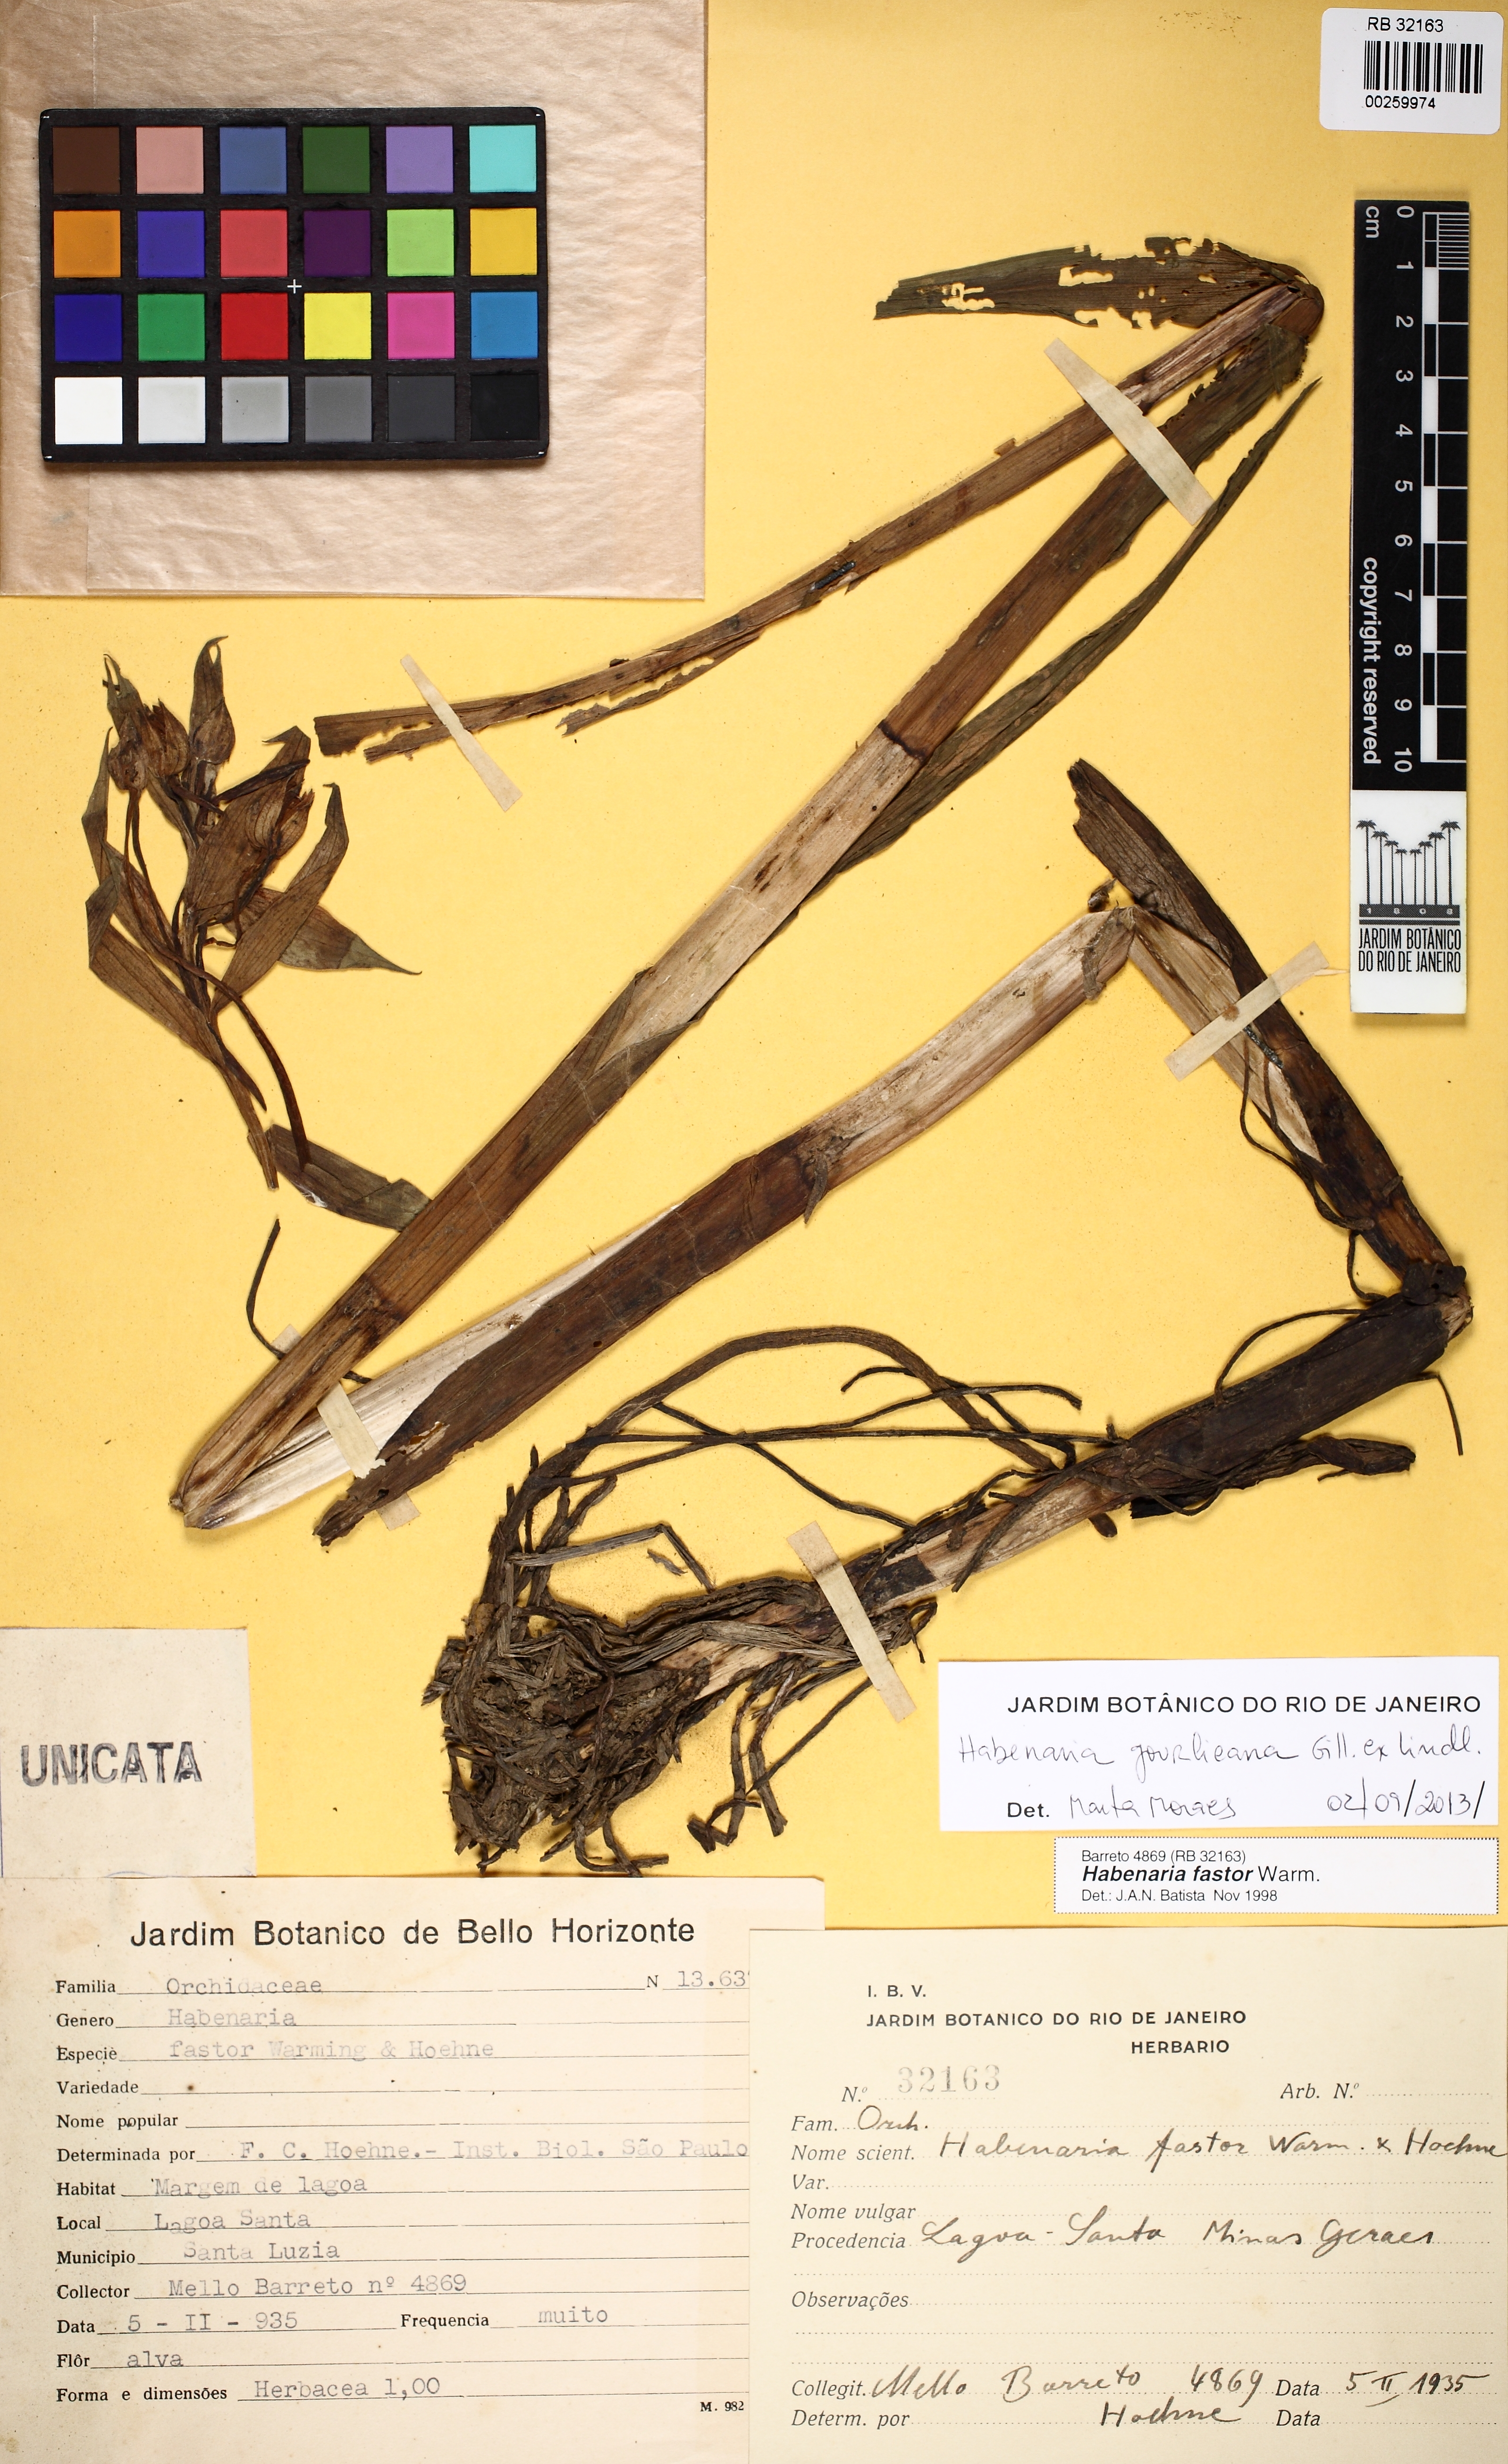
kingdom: Plantae
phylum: Tracheophyta
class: Liliopsida
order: Asparagales
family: Orchidaceae
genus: Habenaria
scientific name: Habenaria gourlieana
